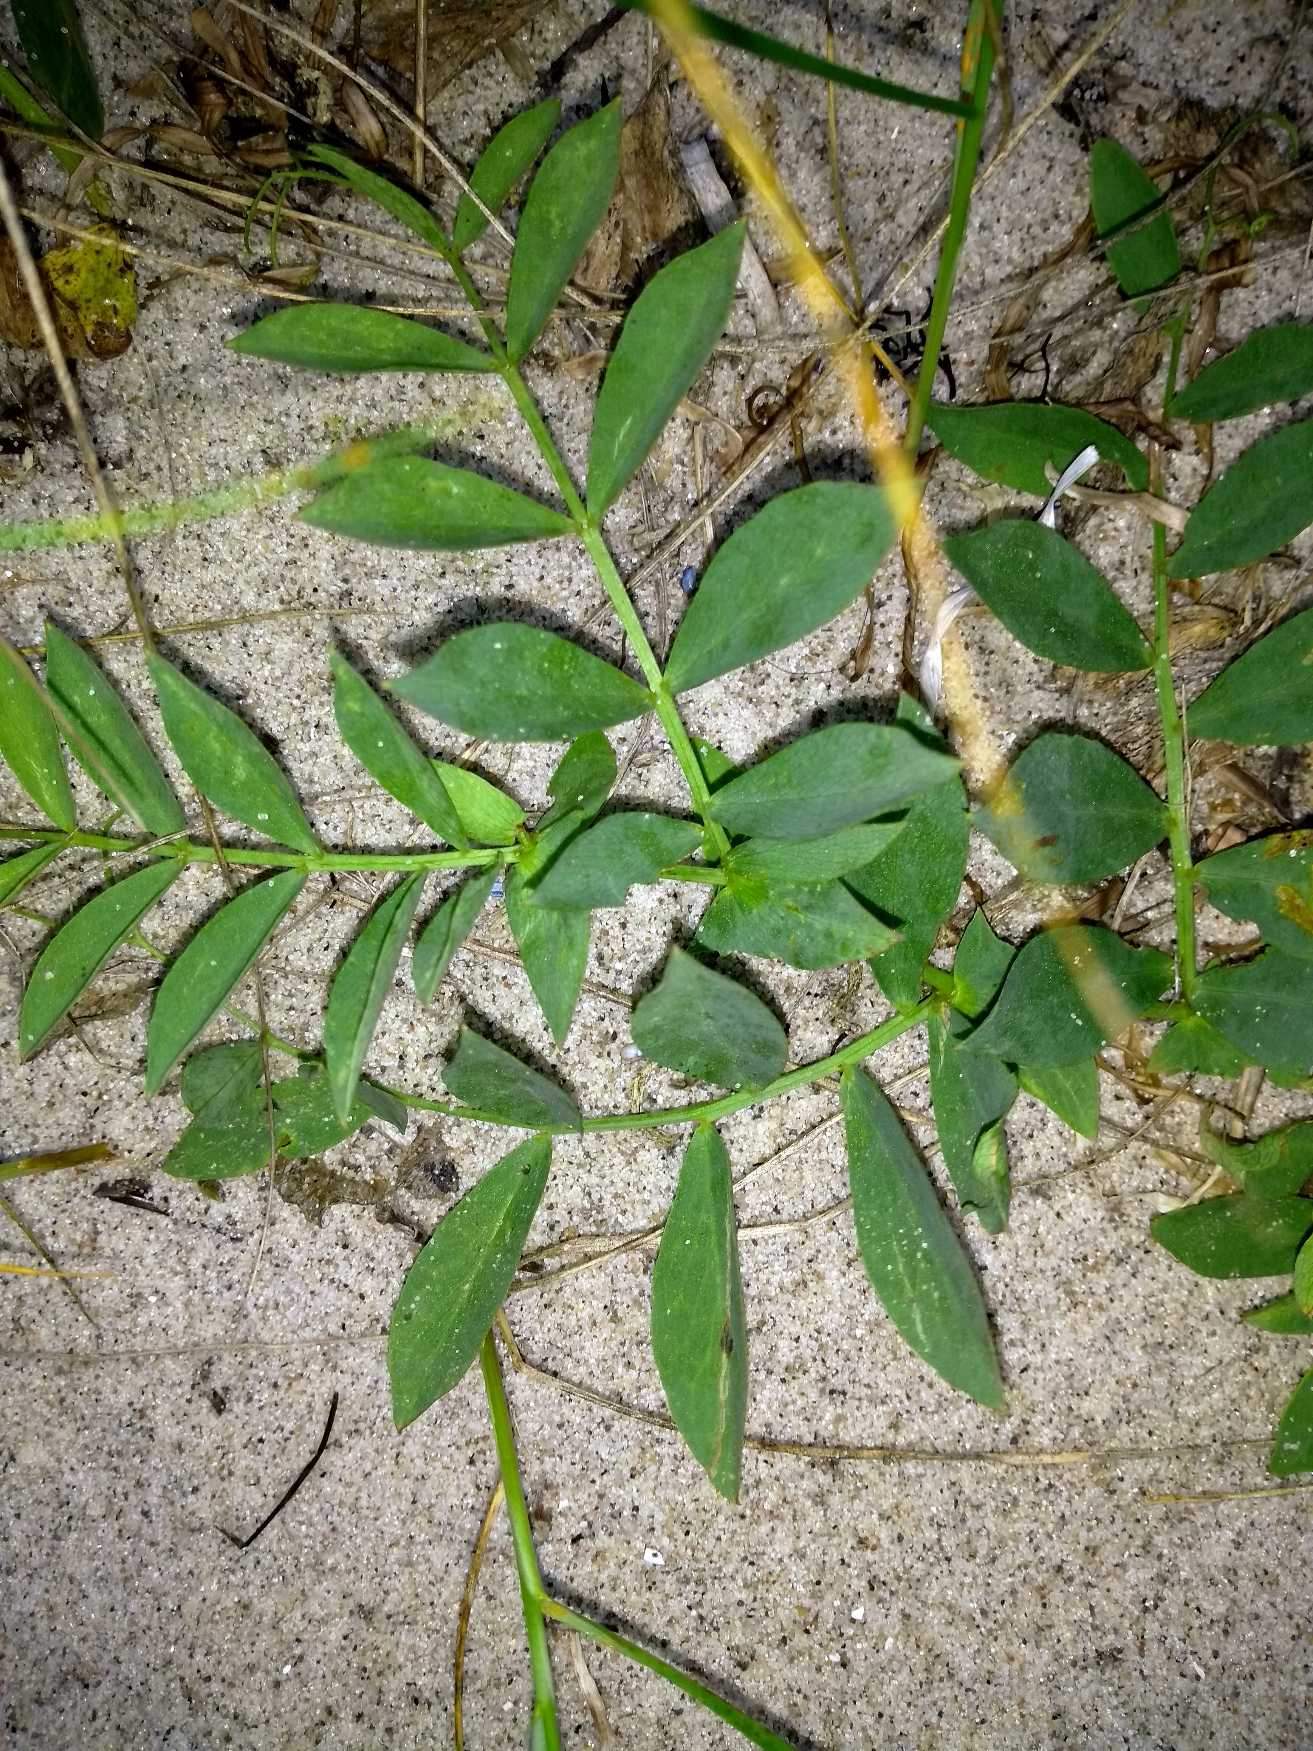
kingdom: Plantae
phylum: Tracheophyta
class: Magnoliopsida
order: Fabales
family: Fabaceae
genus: Lathyrus
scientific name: Lathyrus japonicus
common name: Strand-fladbælg
